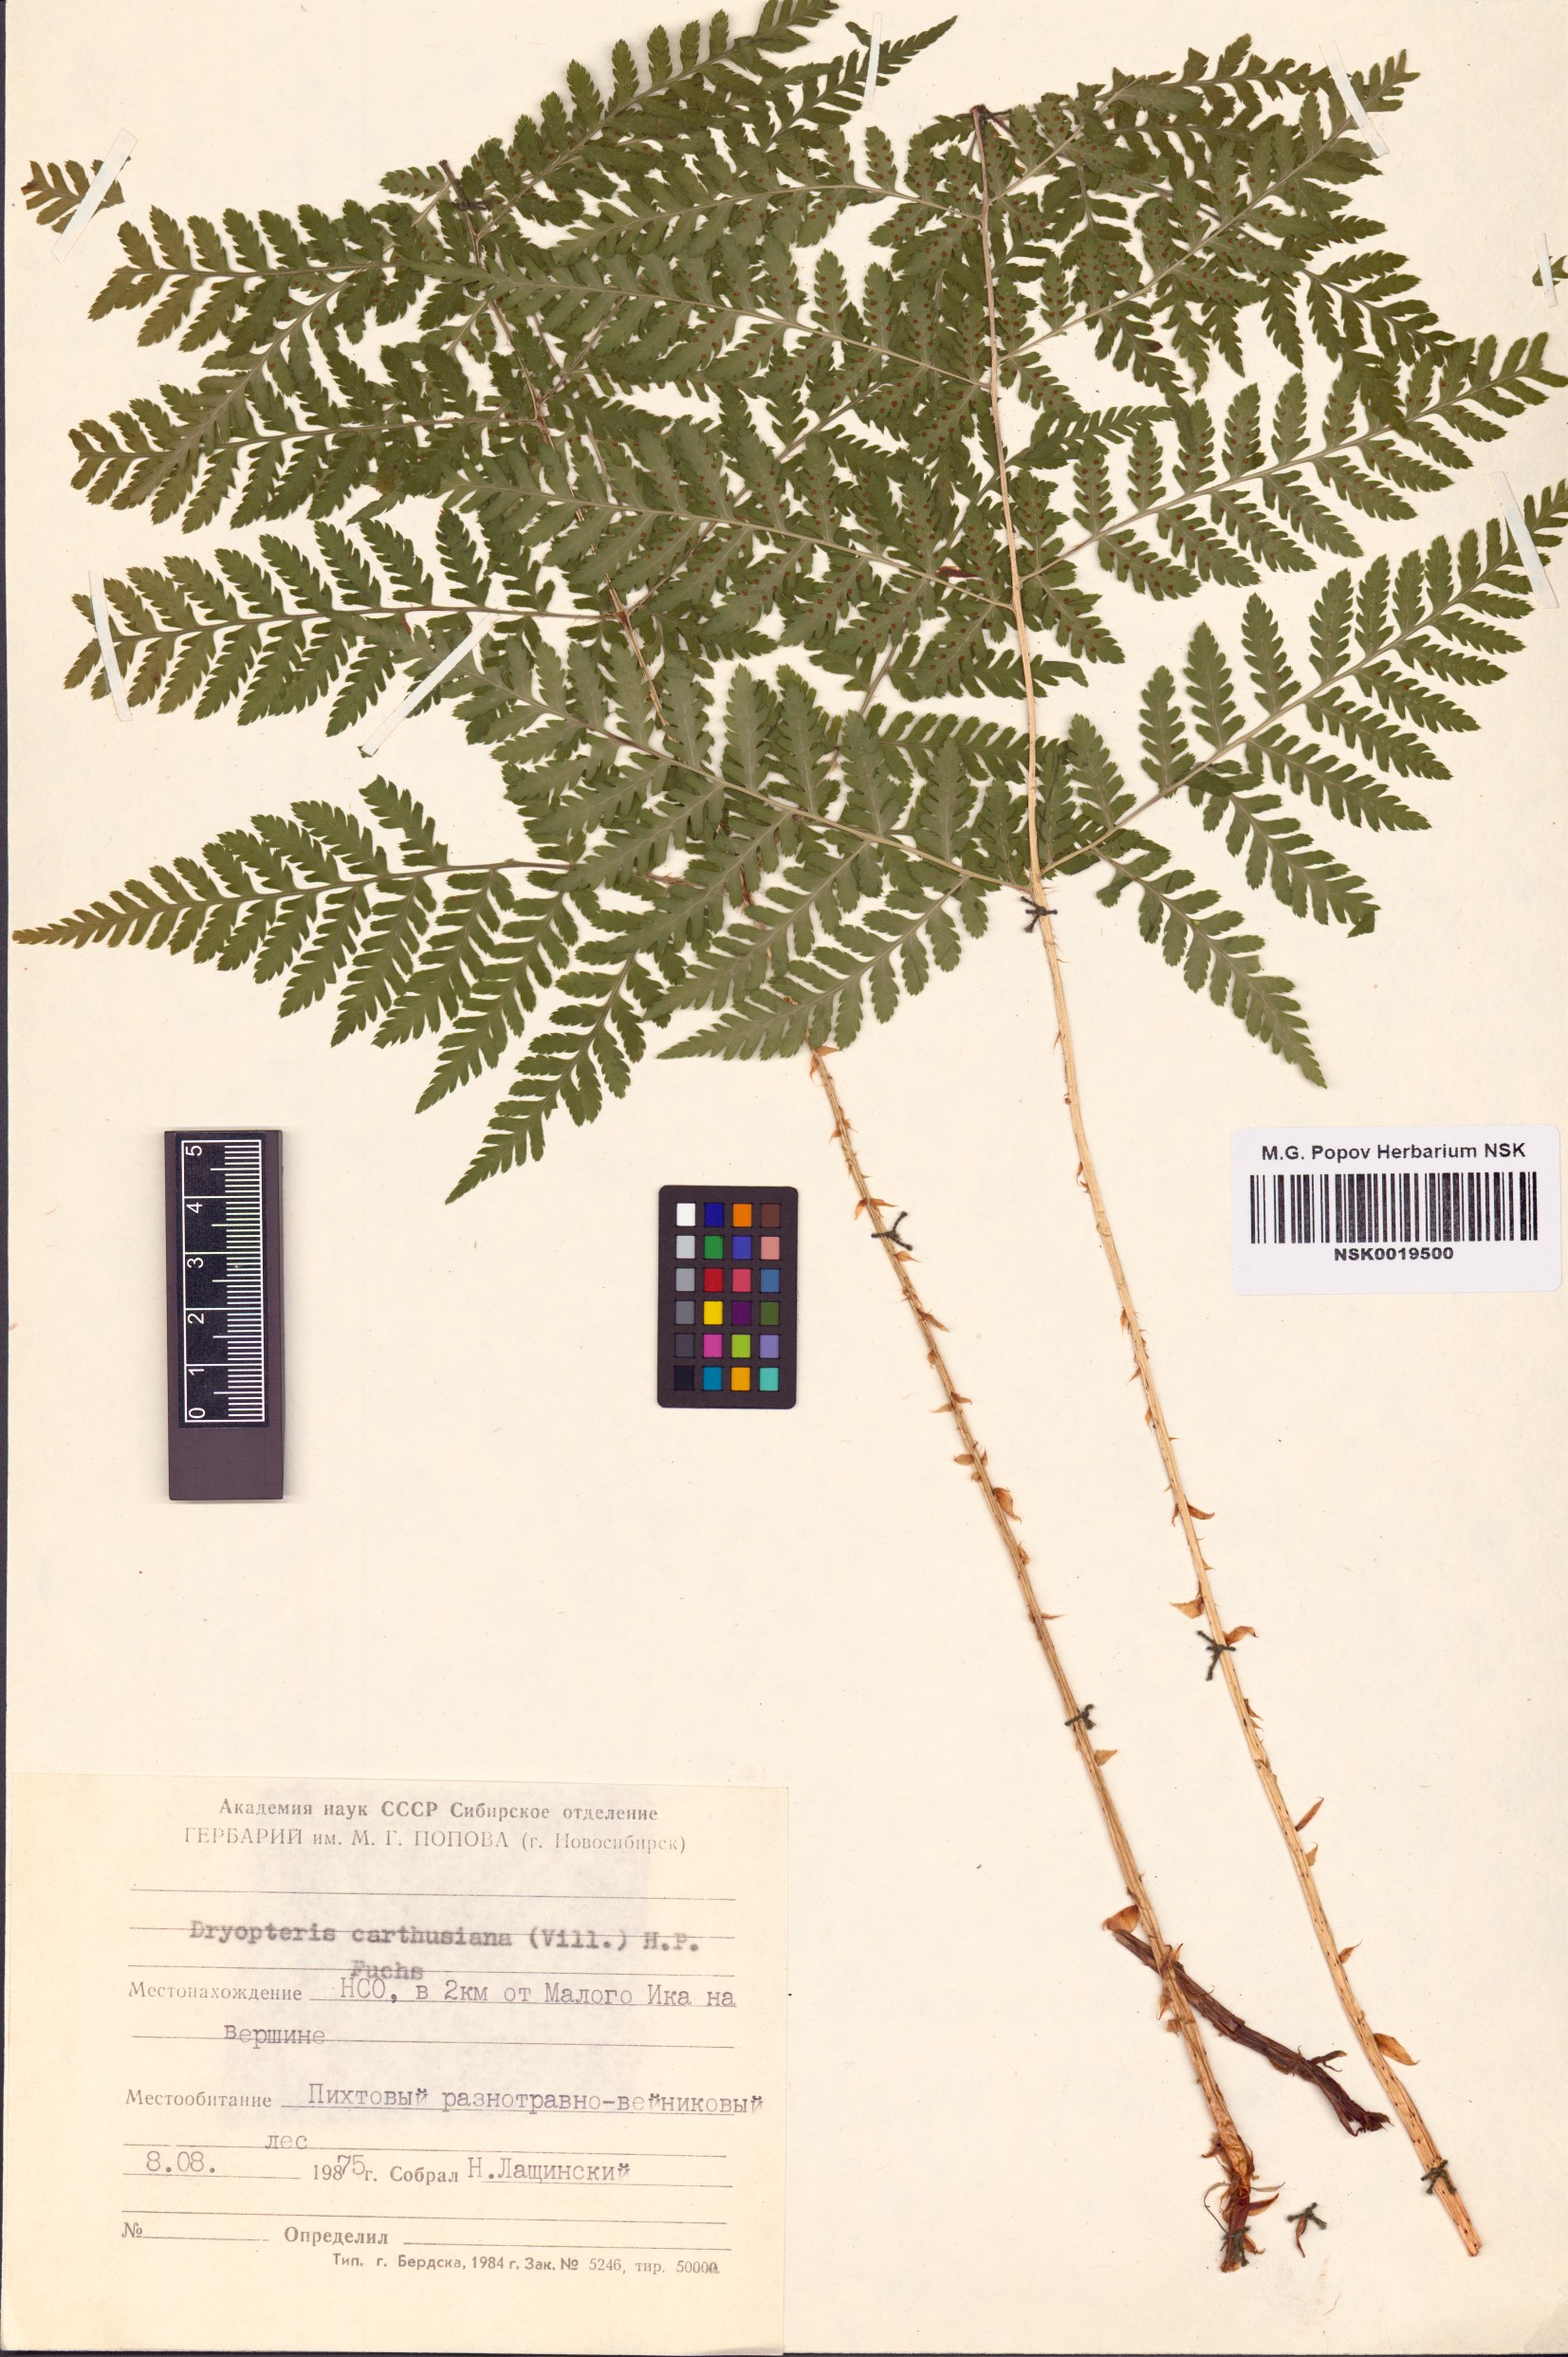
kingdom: Plantae
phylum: Tracheophyta
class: Polypodiopsida
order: Polypodiales
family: Dryopteridaceae
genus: Dryopteris
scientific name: Dryopteris carthusiana
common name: Narrow buckler-fern
